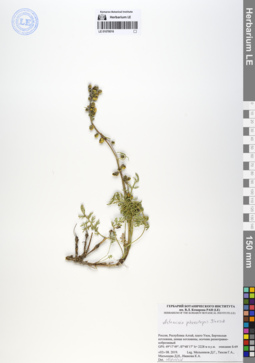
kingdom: Plantae
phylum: Tracheophyta
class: Magnoliopsida
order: Asterales
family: Asteraceae
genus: Artemisia
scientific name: Artemisia phaeolepis
